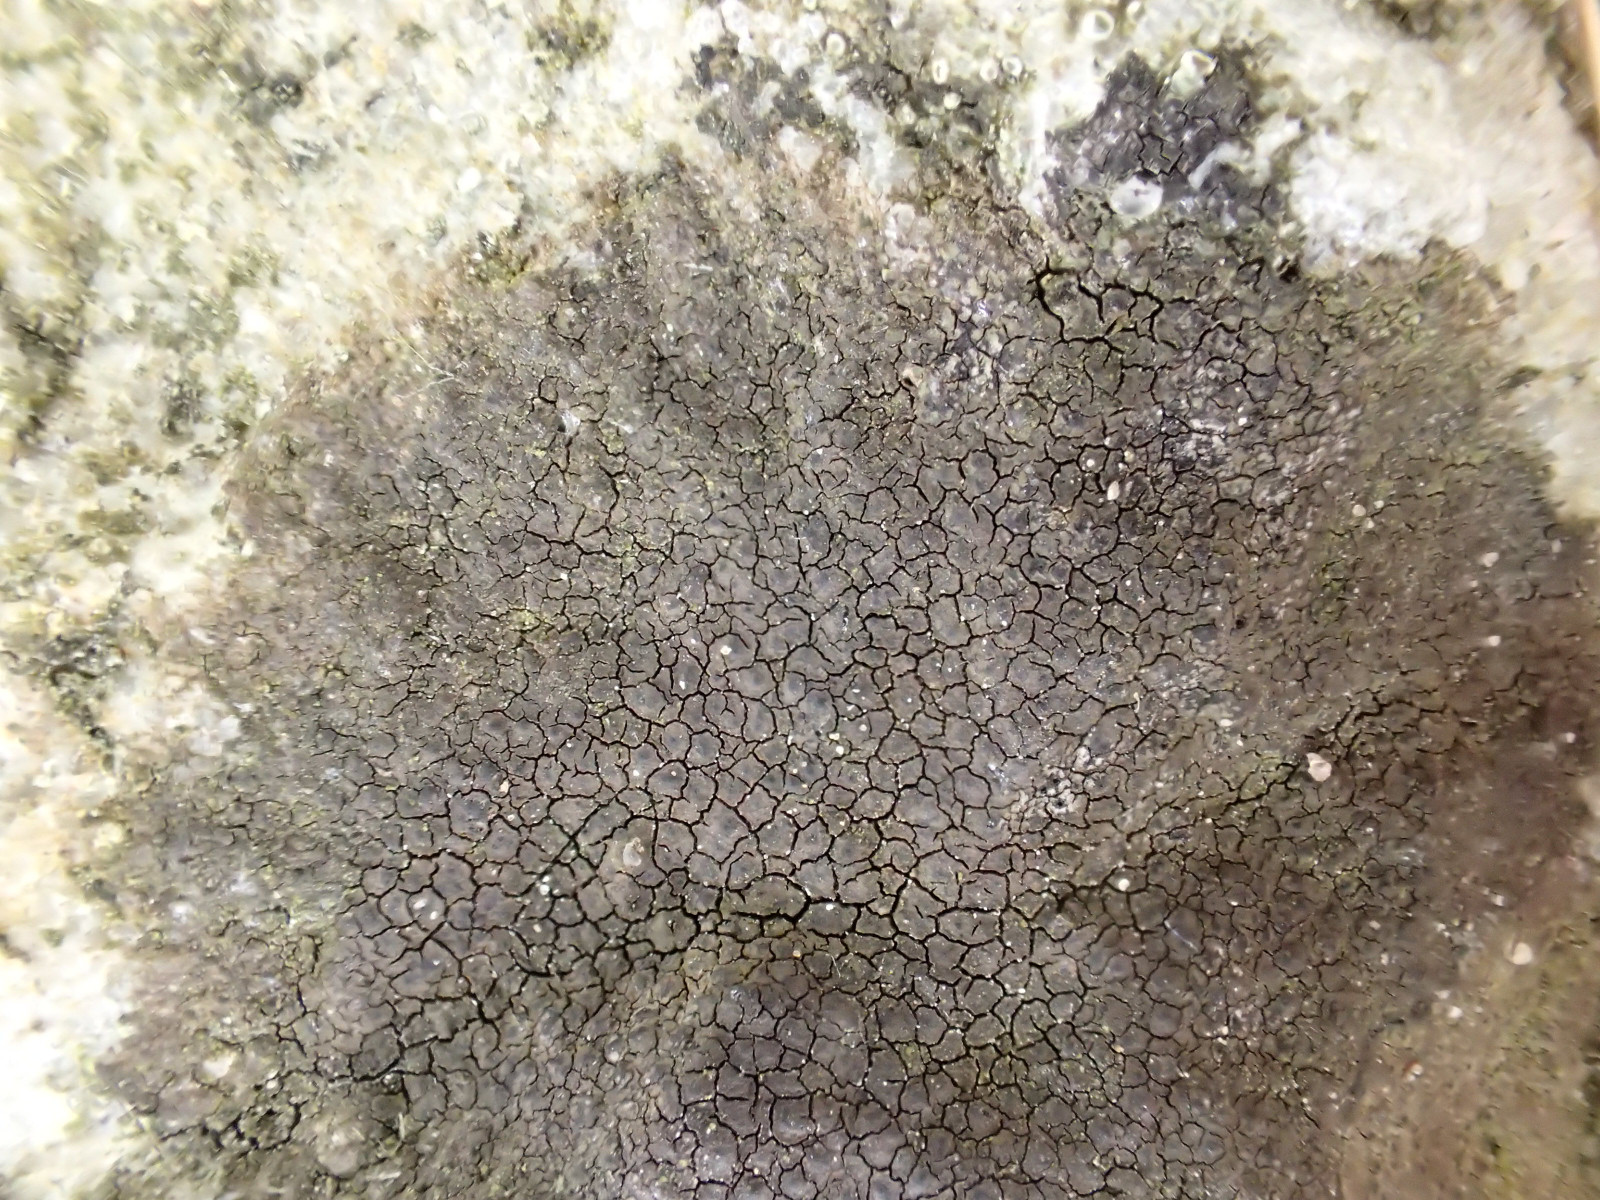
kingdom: Fungi
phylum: Ascomycota
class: Eurotiomycetes
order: Verrucariales
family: Verrucariaceae
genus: Verrucaria
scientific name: Verrucaria nigrescens
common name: sortbrun vortelav
